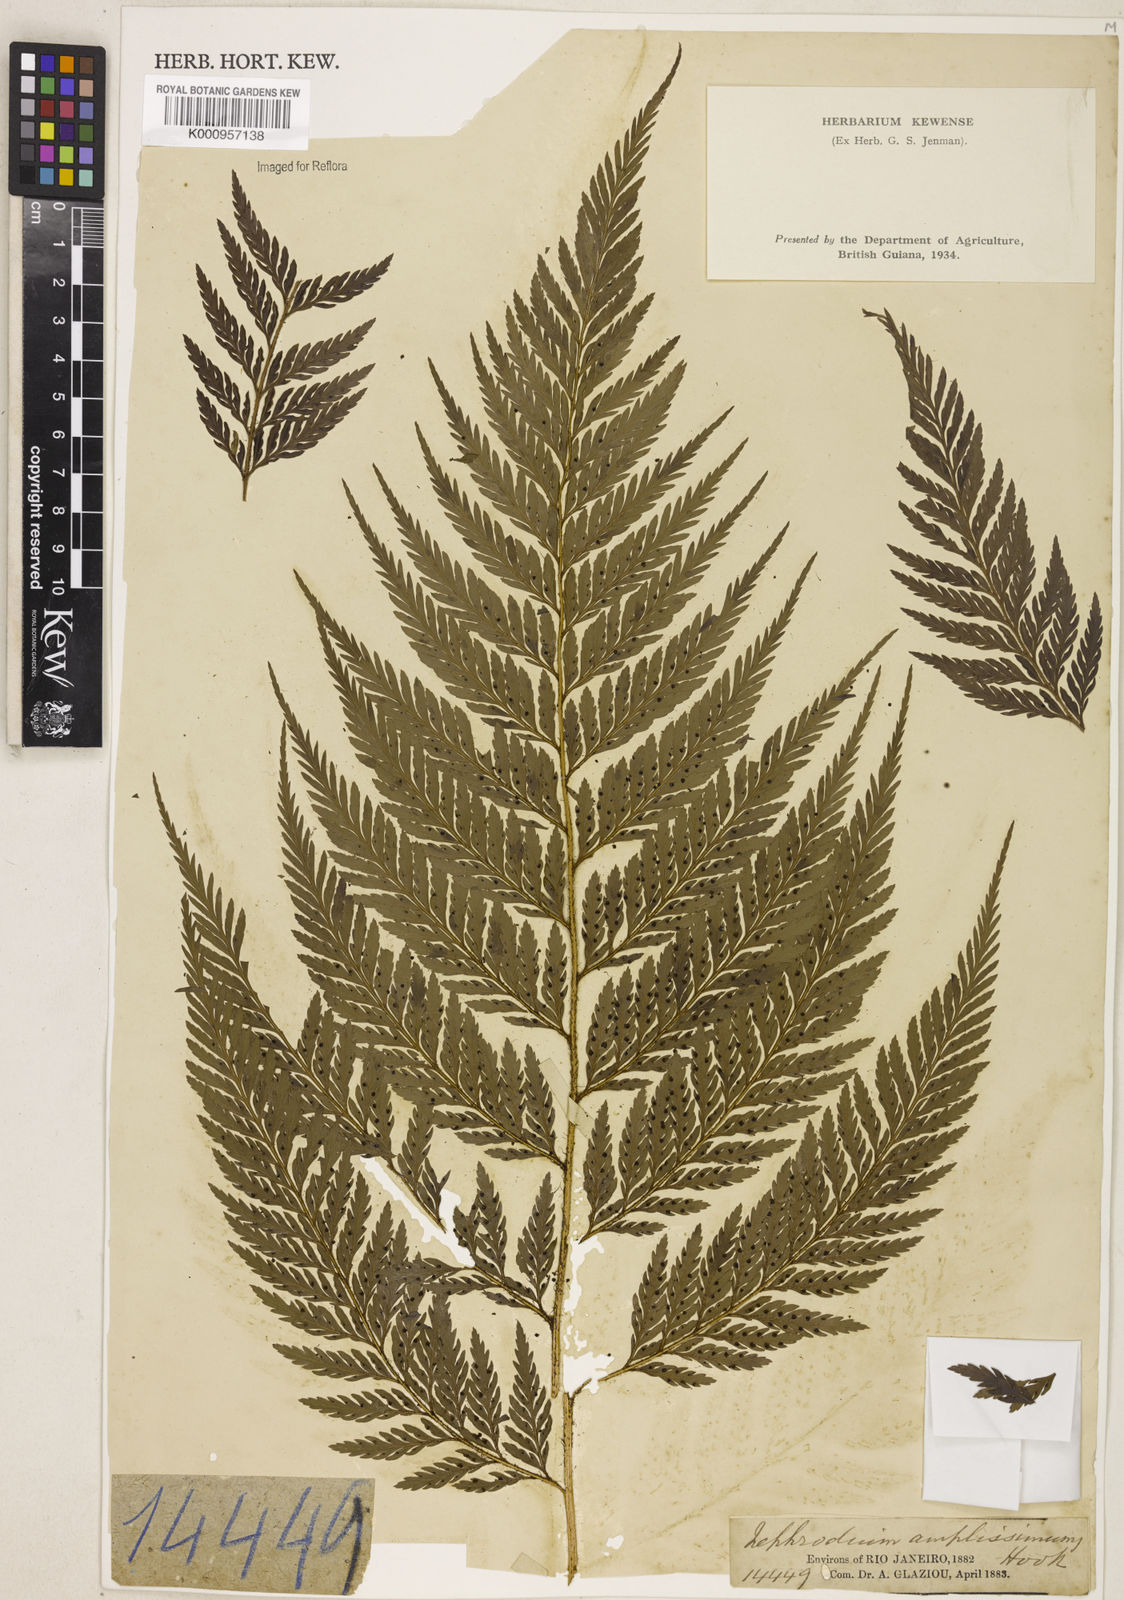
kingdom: Plantae
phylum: Tracheophyta
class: Polypodiopsida
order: Polypodiales
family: Dryopteridaceae
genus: Parapolystichum
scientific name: Parapolystichum effusum
